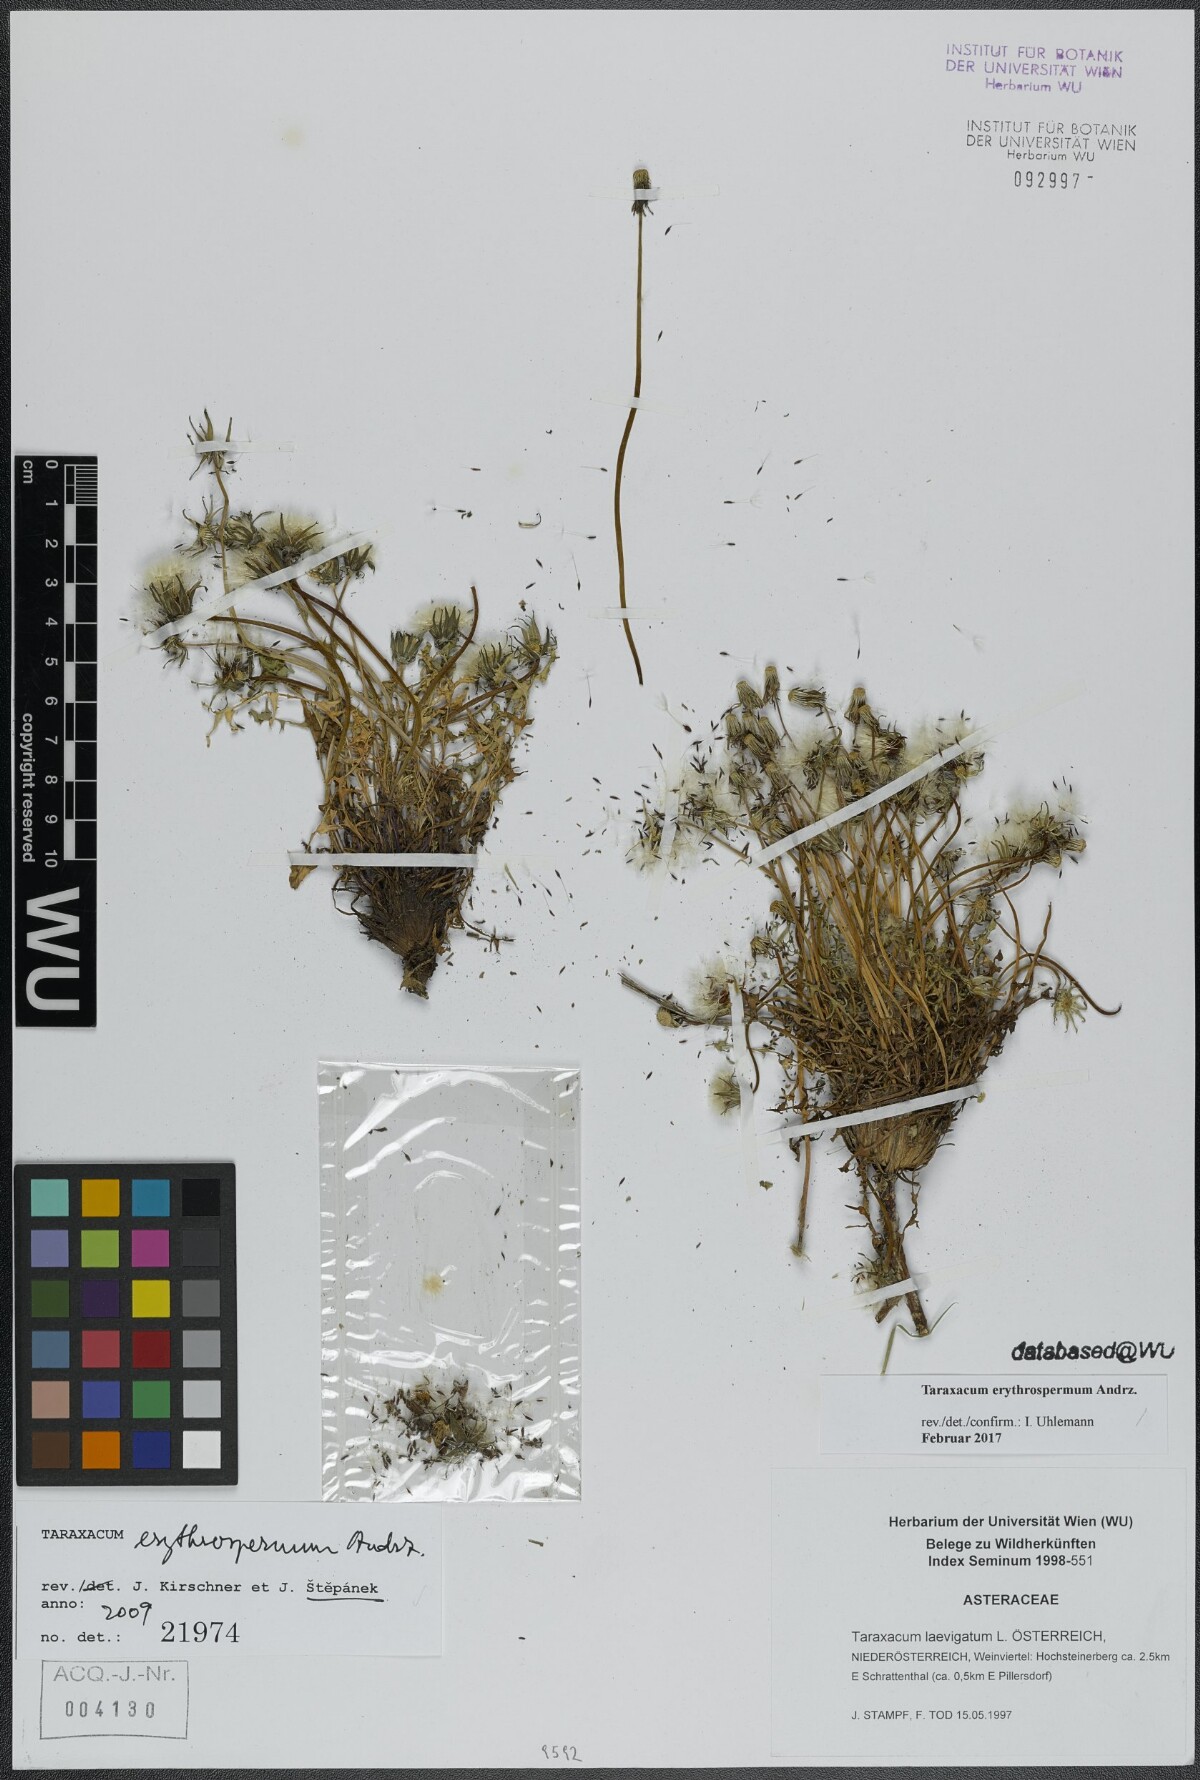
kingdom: Plantae
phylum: Tracheophyta
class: Magnoliopsida
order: Asterales
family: Asteraceae
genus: Taraxacum
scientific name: Taraxacum erythrospermum
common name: Rock dandelion
